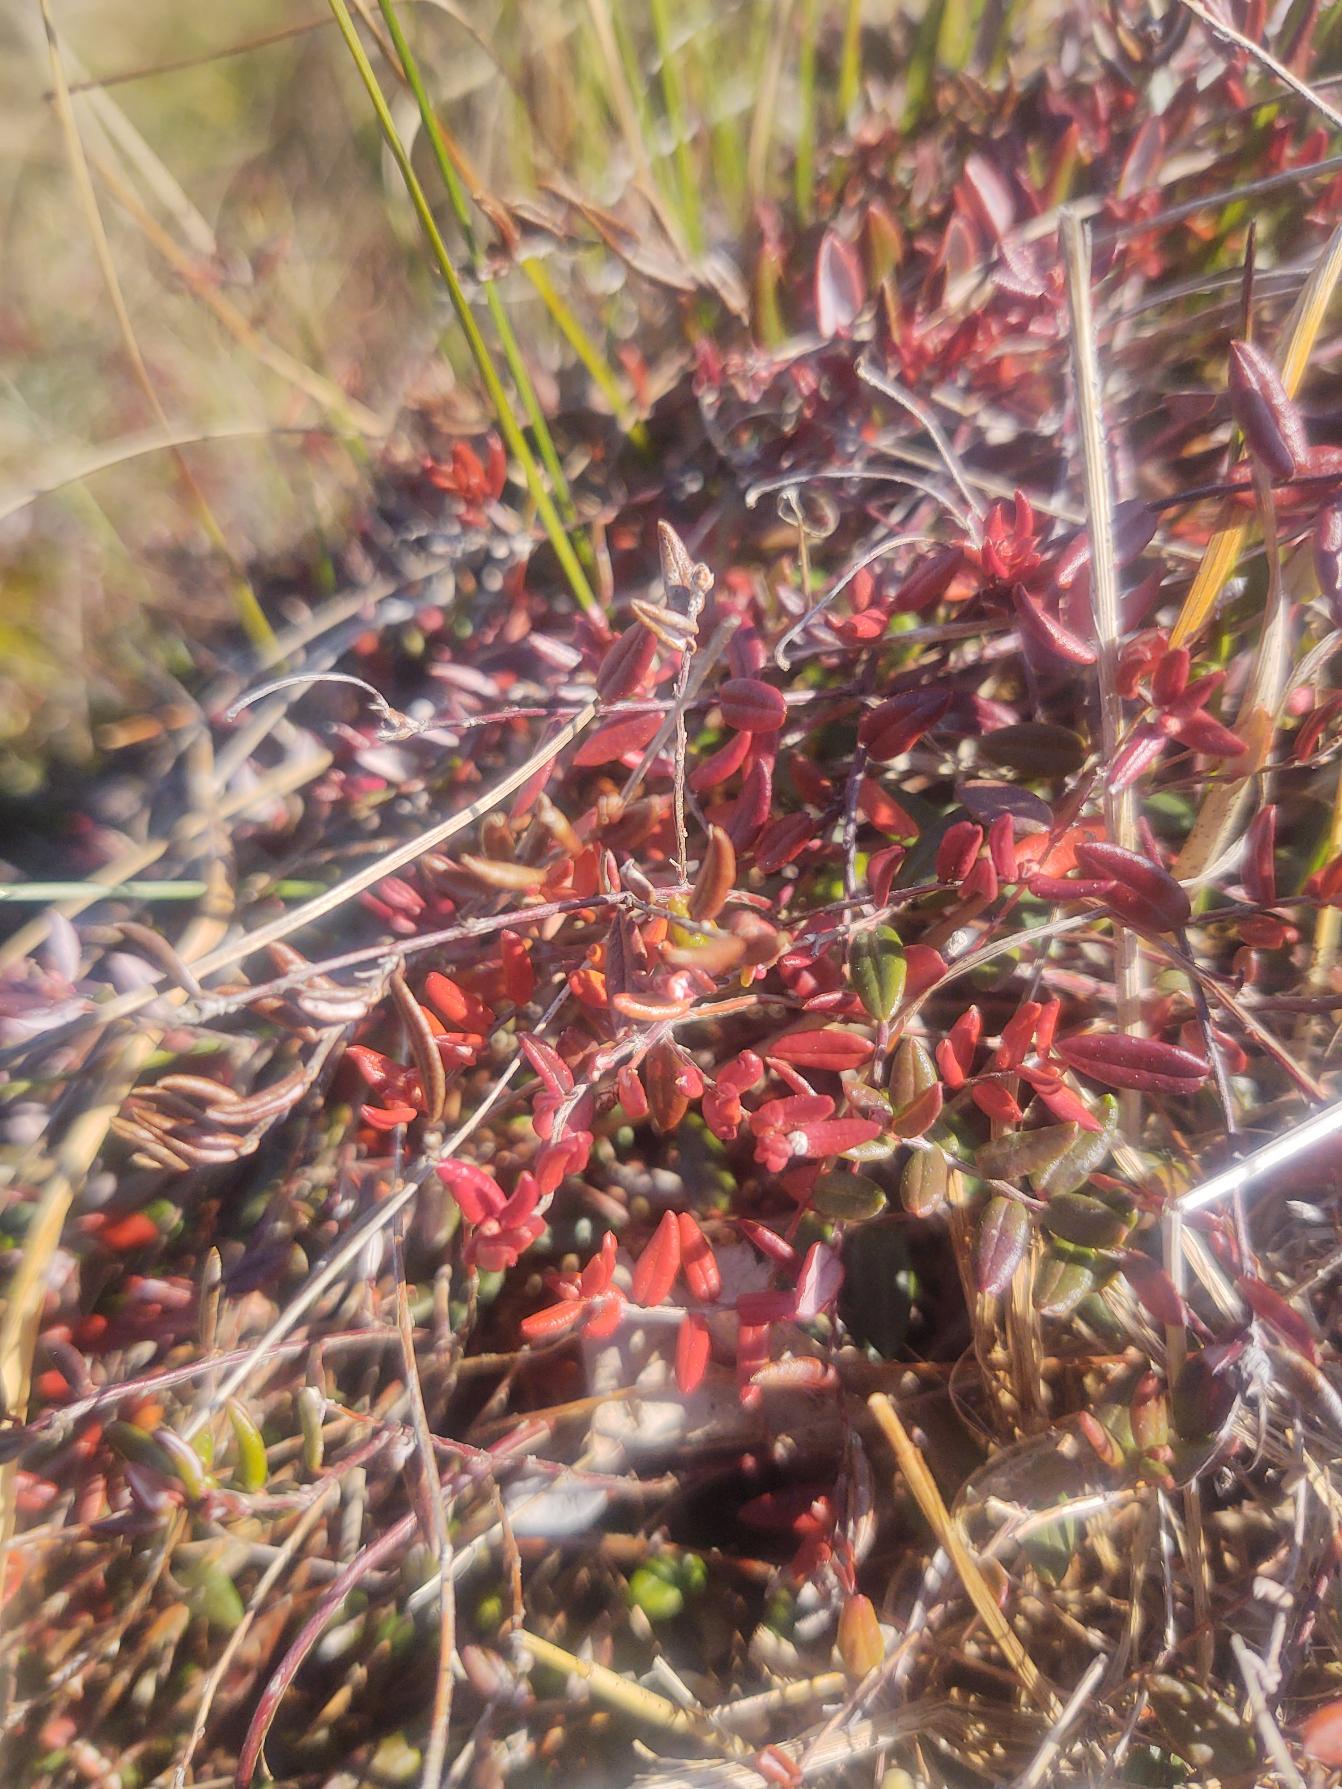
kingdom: Plantae
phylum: Tracheophyta
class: Magnoliopsida
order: Ericales
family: Ericaceae
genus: Vaccinium
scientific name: Vaccinium oxycoccos
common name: Tranebær
